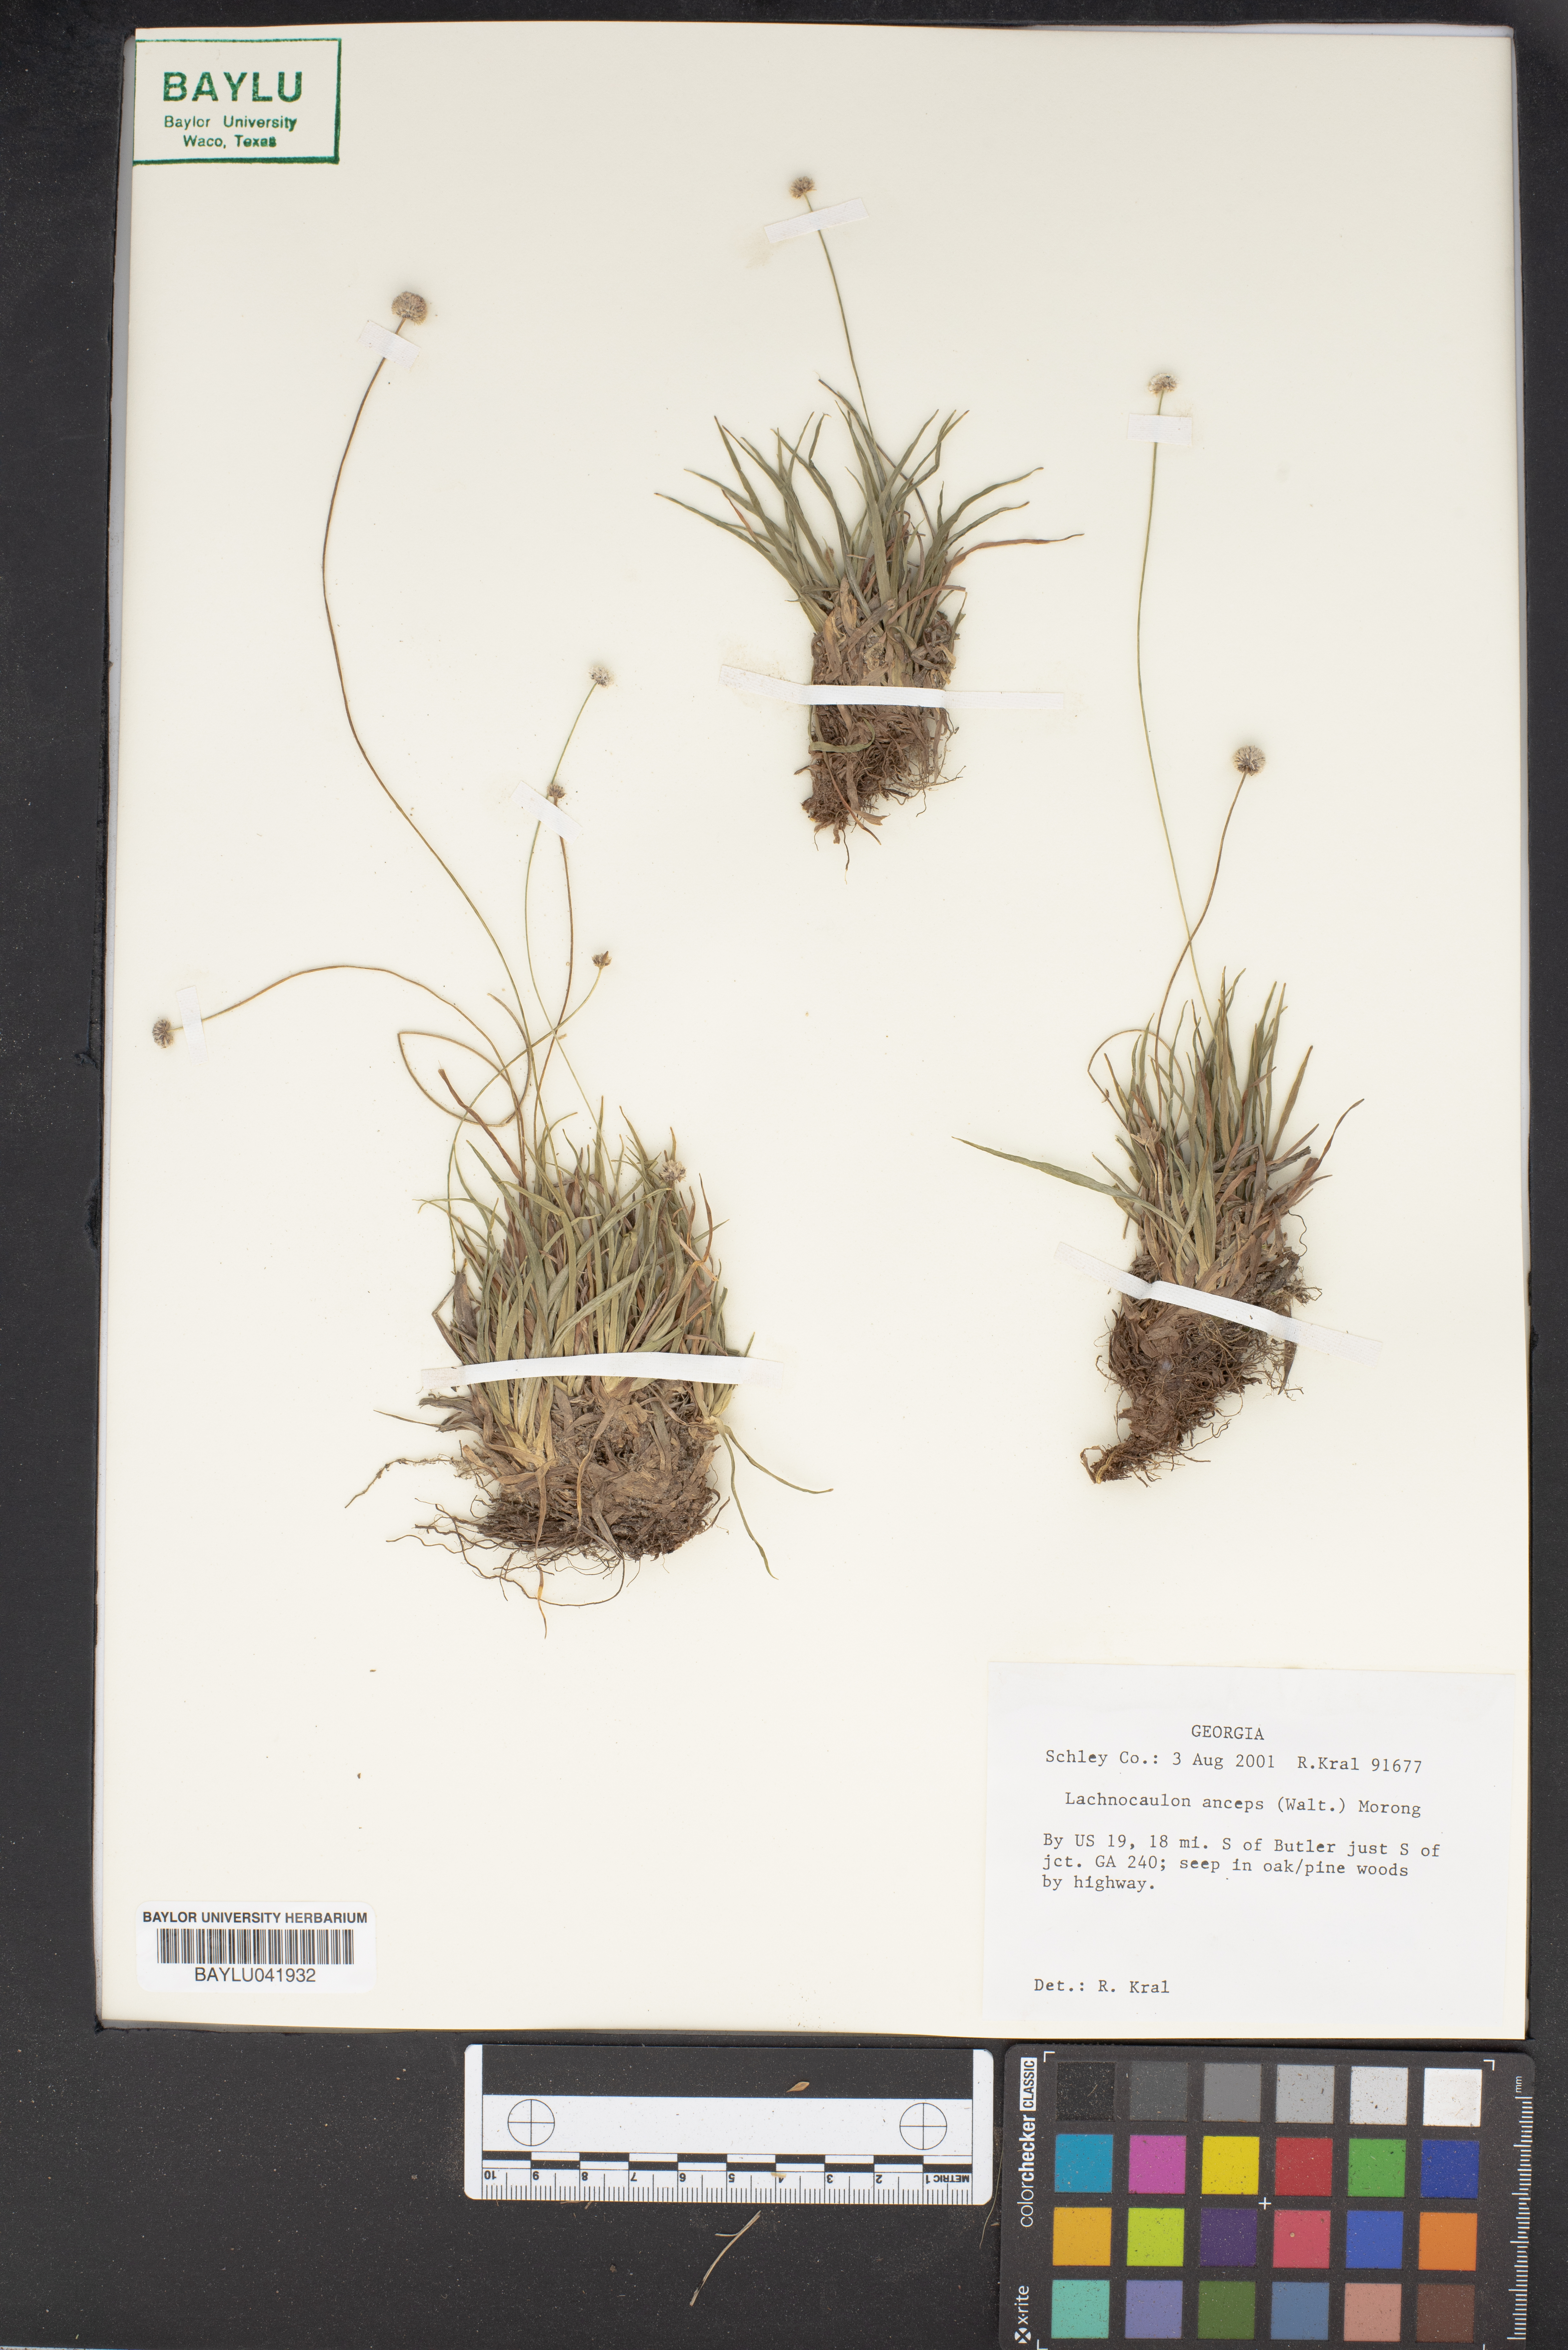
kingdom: Plantae
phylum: Tracheophyta
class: Liliopsida
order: Poales
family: Eriocaulaceae
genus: Paepalanthus
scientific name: Paepalanthus anceps
